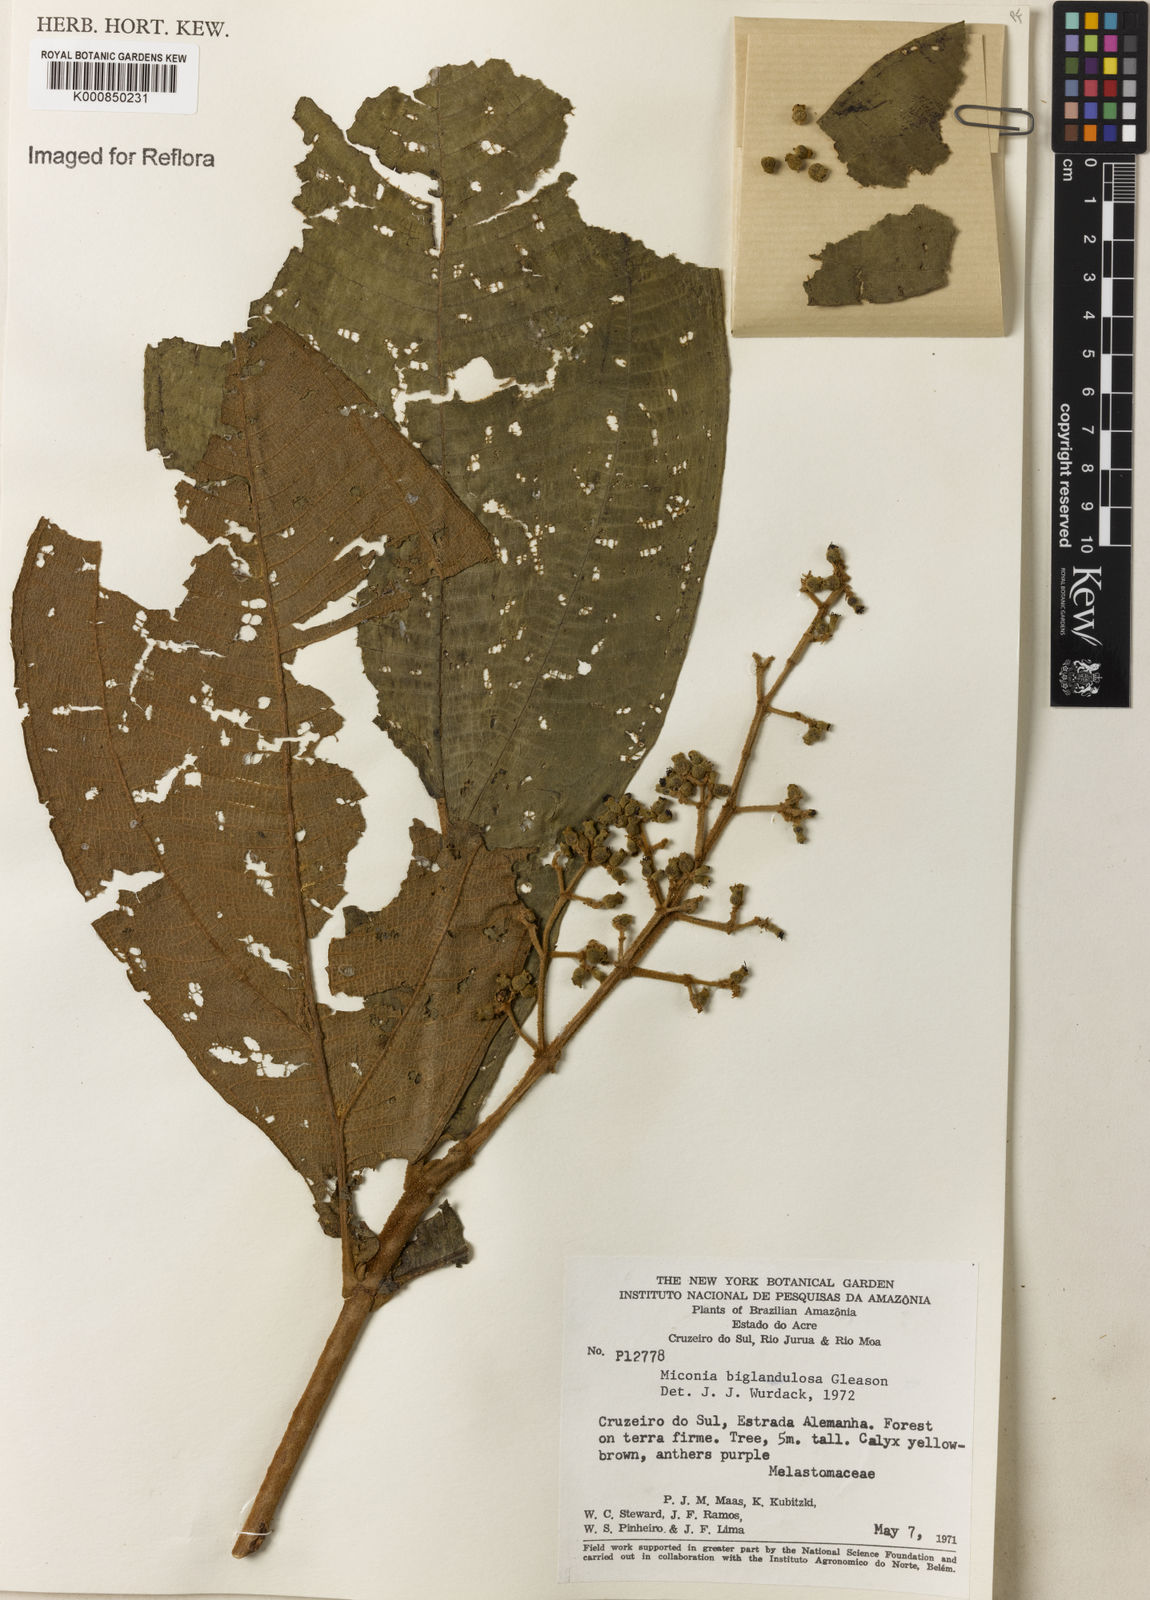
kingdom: Plantae
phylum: Tracheophyta
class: Magnoliopsida
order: Myrtales
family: Melastomataceae
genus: Miconia
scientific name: Miconia biglandulosa
